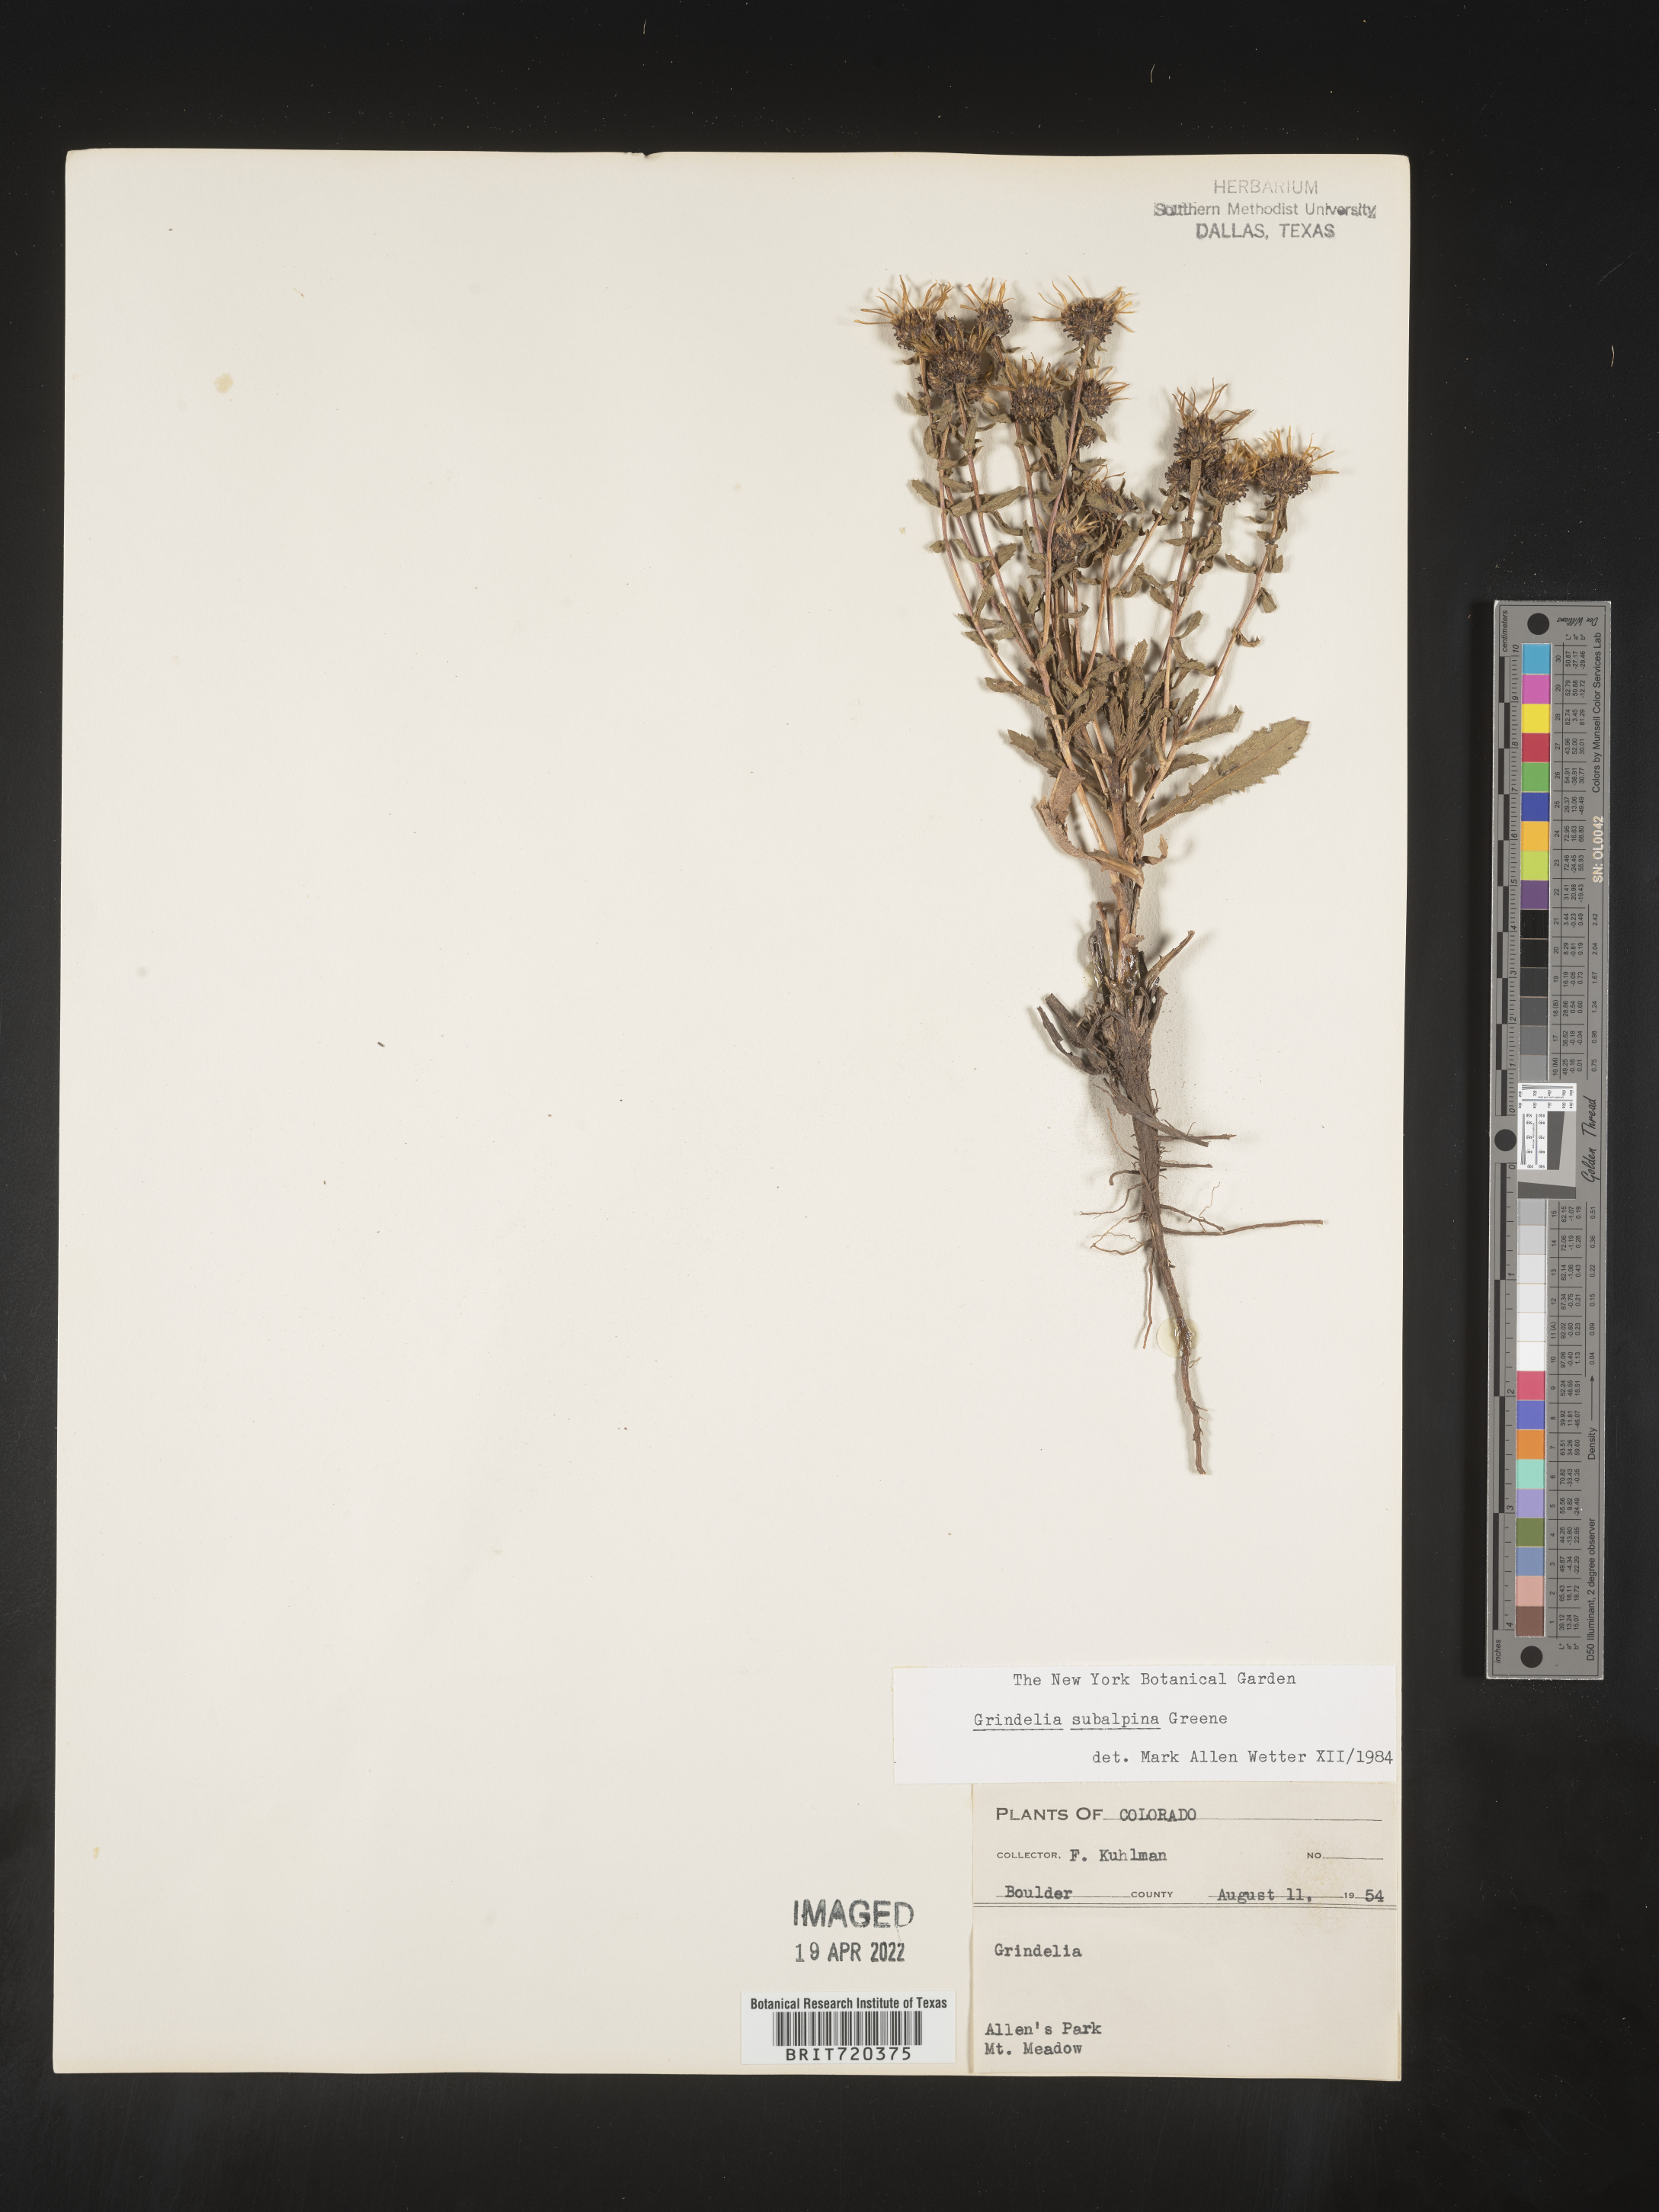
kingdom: Plantae
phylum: Tracheophyta
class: Magnoliopsida
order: Asterales
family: Asteraceae
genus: Grindelia
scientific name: Grindelia subalpina
